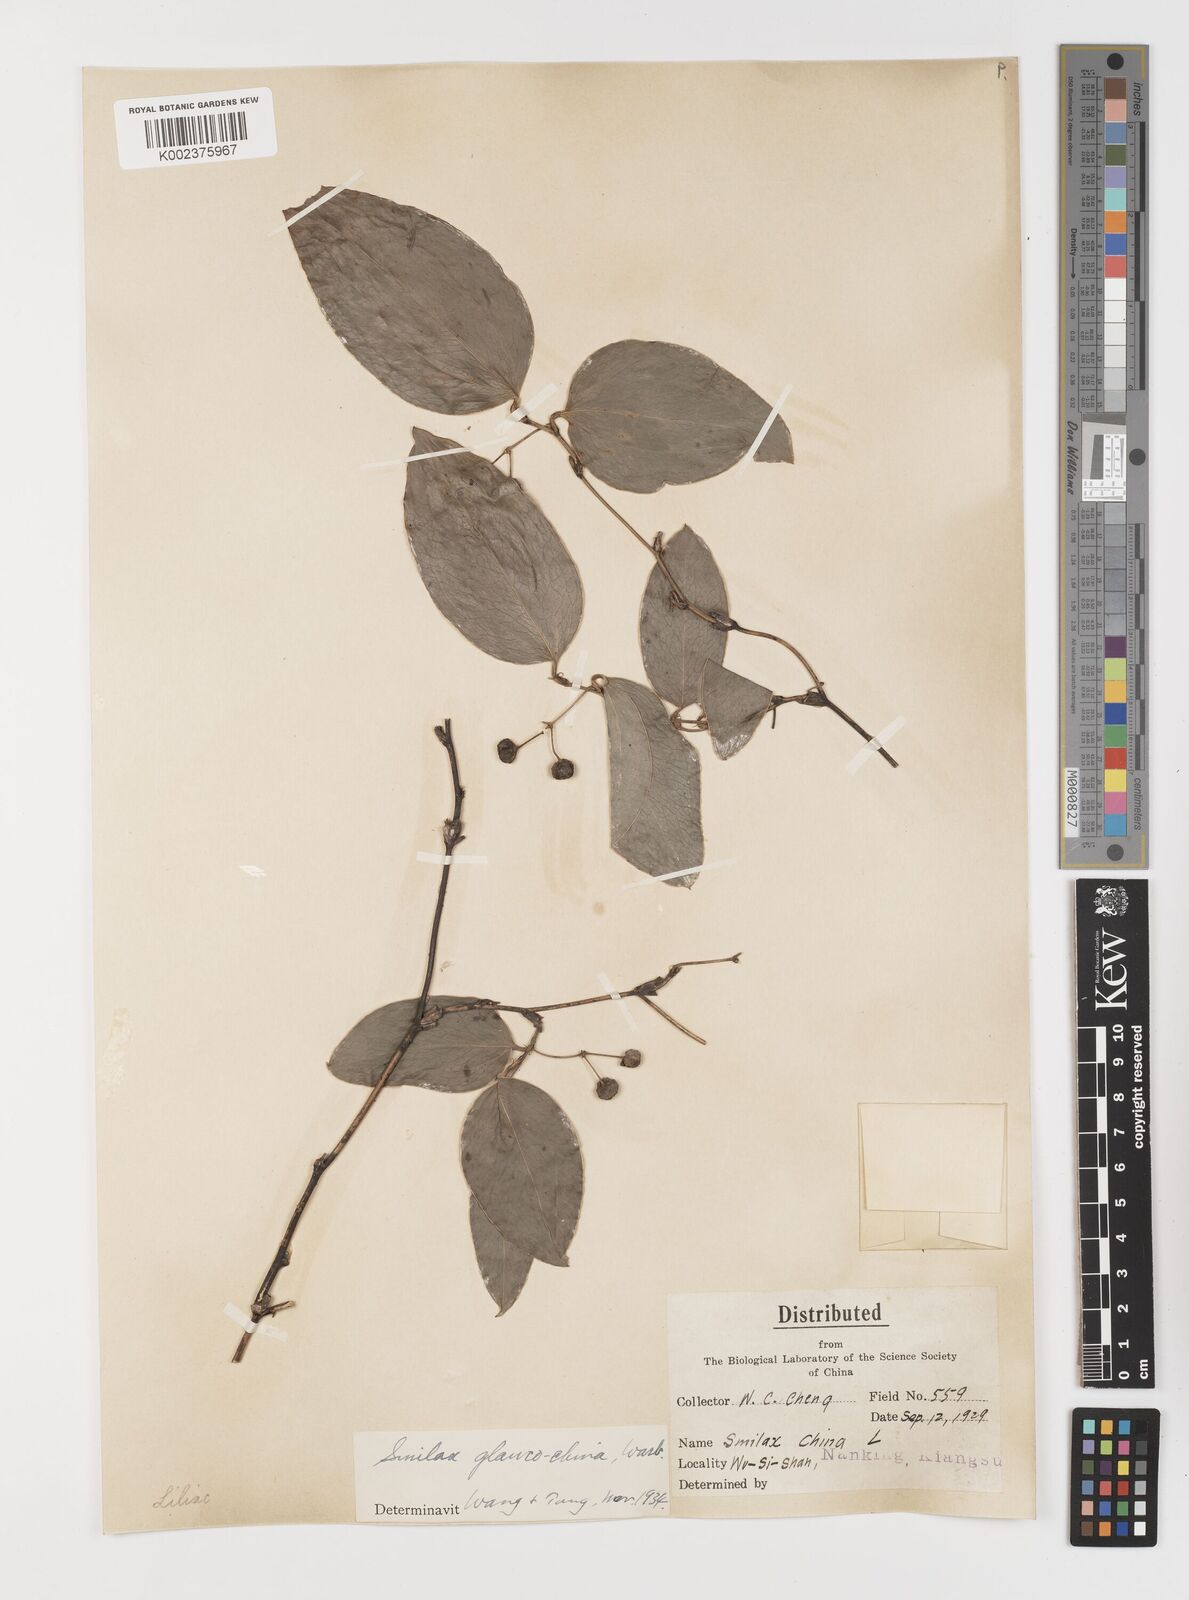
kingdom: Plantae
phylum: Tracheophyta
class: Liliopsida
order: Liliales
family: Smilacaceae
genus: Smilax
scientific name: Smilax glaucochina
